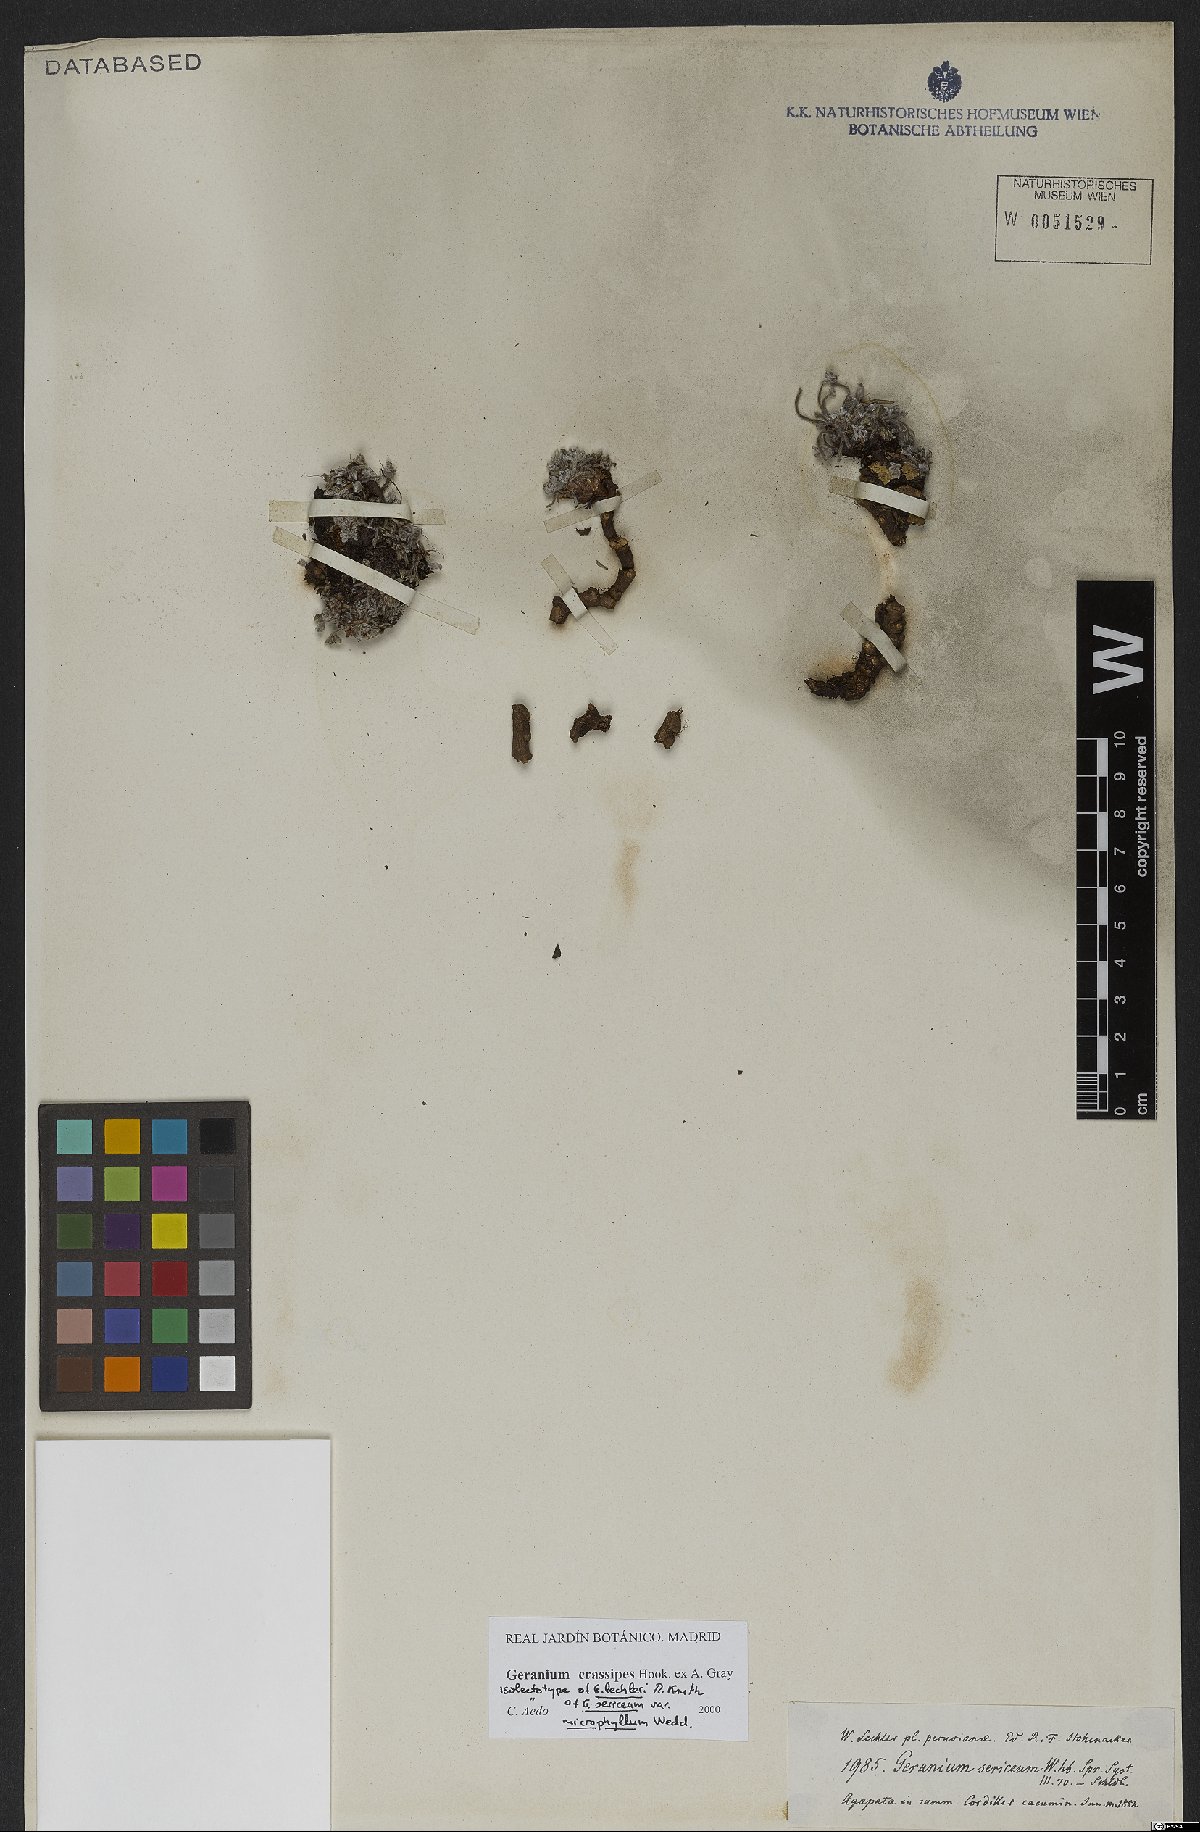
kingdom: Plantae
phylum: Tracheophyta
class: Magnoliopsida
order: Geraniales
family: Geraniaceae
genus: Geranium
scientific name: Geranium crassipes
